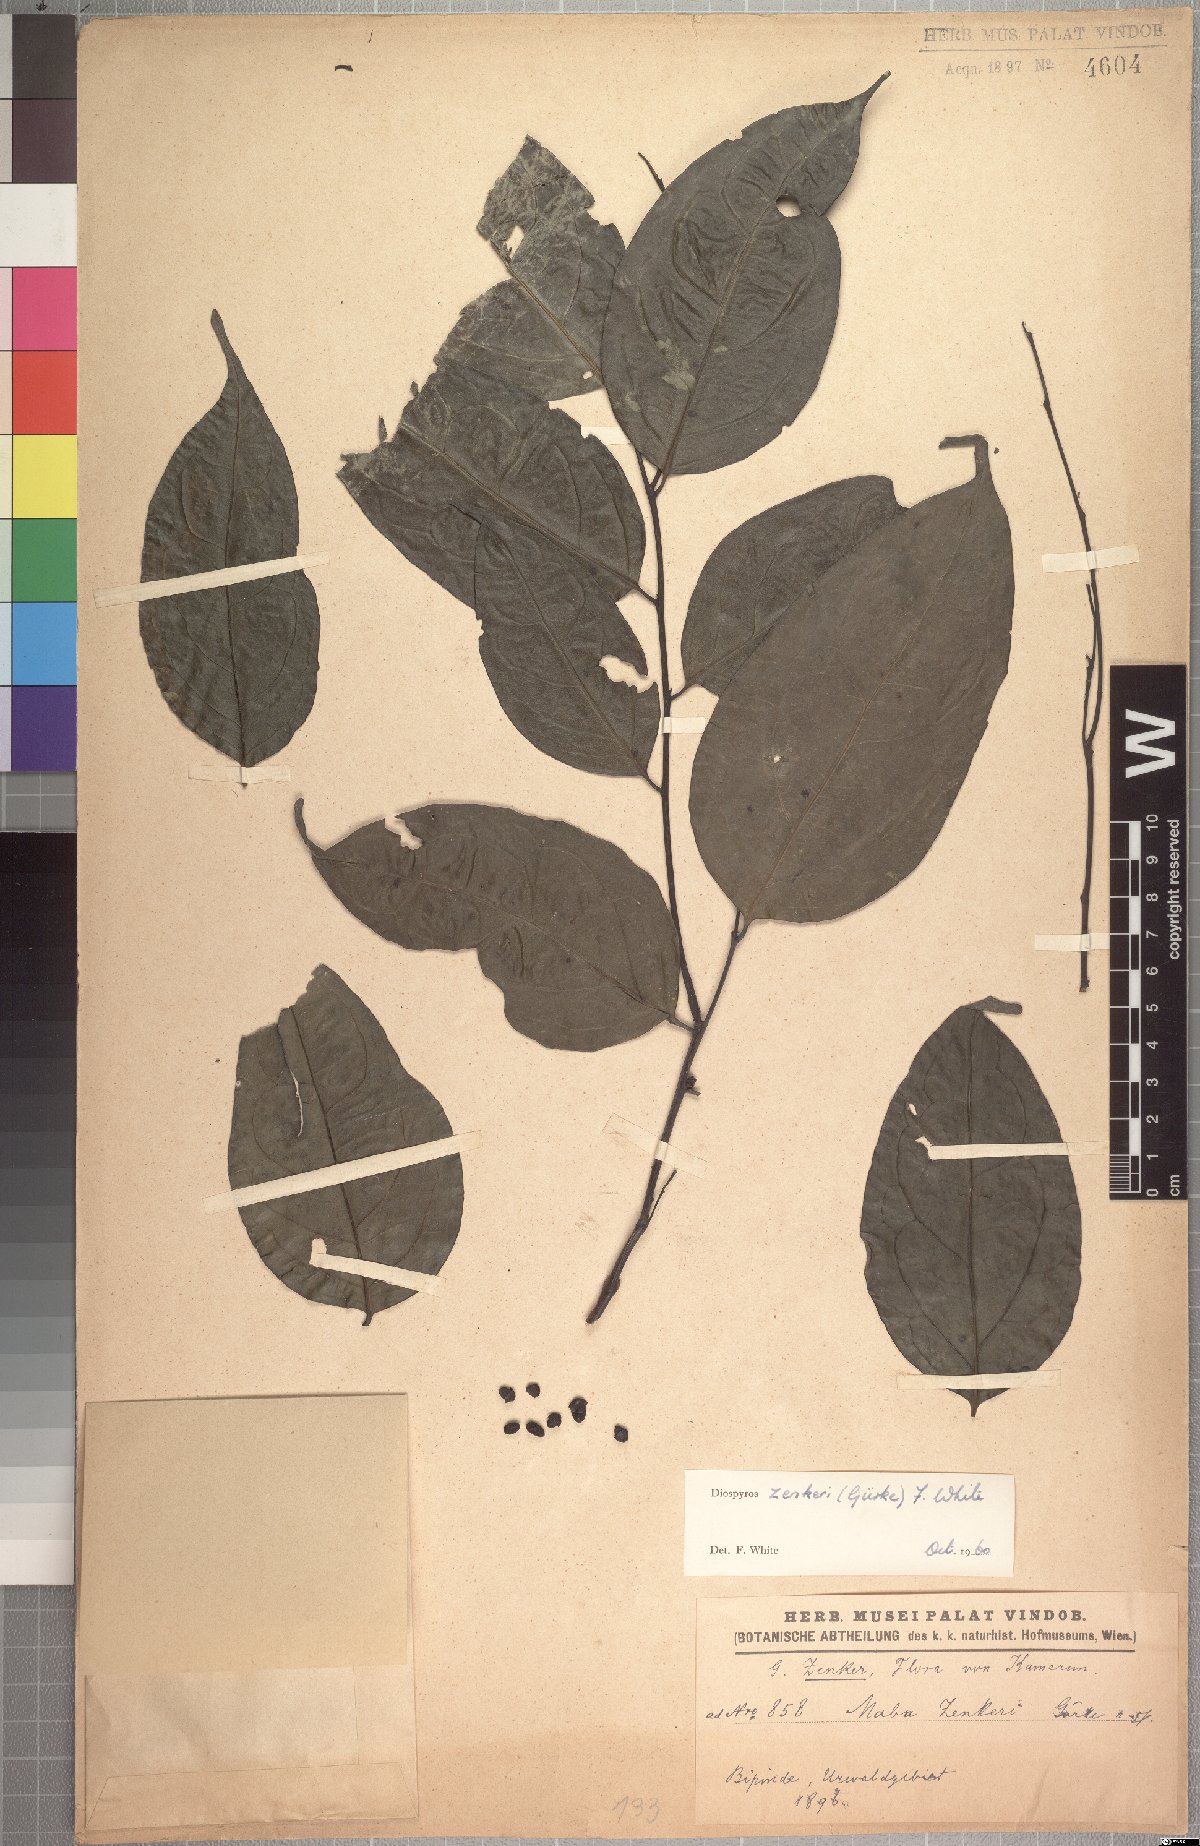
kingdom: Plantae
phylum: Tracheophyta
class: Magnoliopsida
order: Ericales
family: Ebenaceae
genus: Diospyros
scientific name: Diospyros zenkeri
